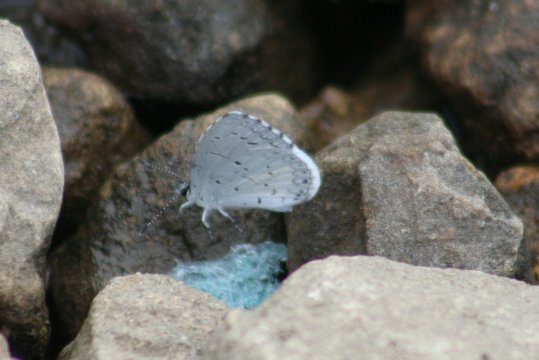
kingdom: Animalia
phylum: Arthropoda
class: Insecta
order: Lepidoptera
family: Lycaenidae
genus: Cyaniris
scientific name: Cyaniris neglecta
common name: Summer Azure
